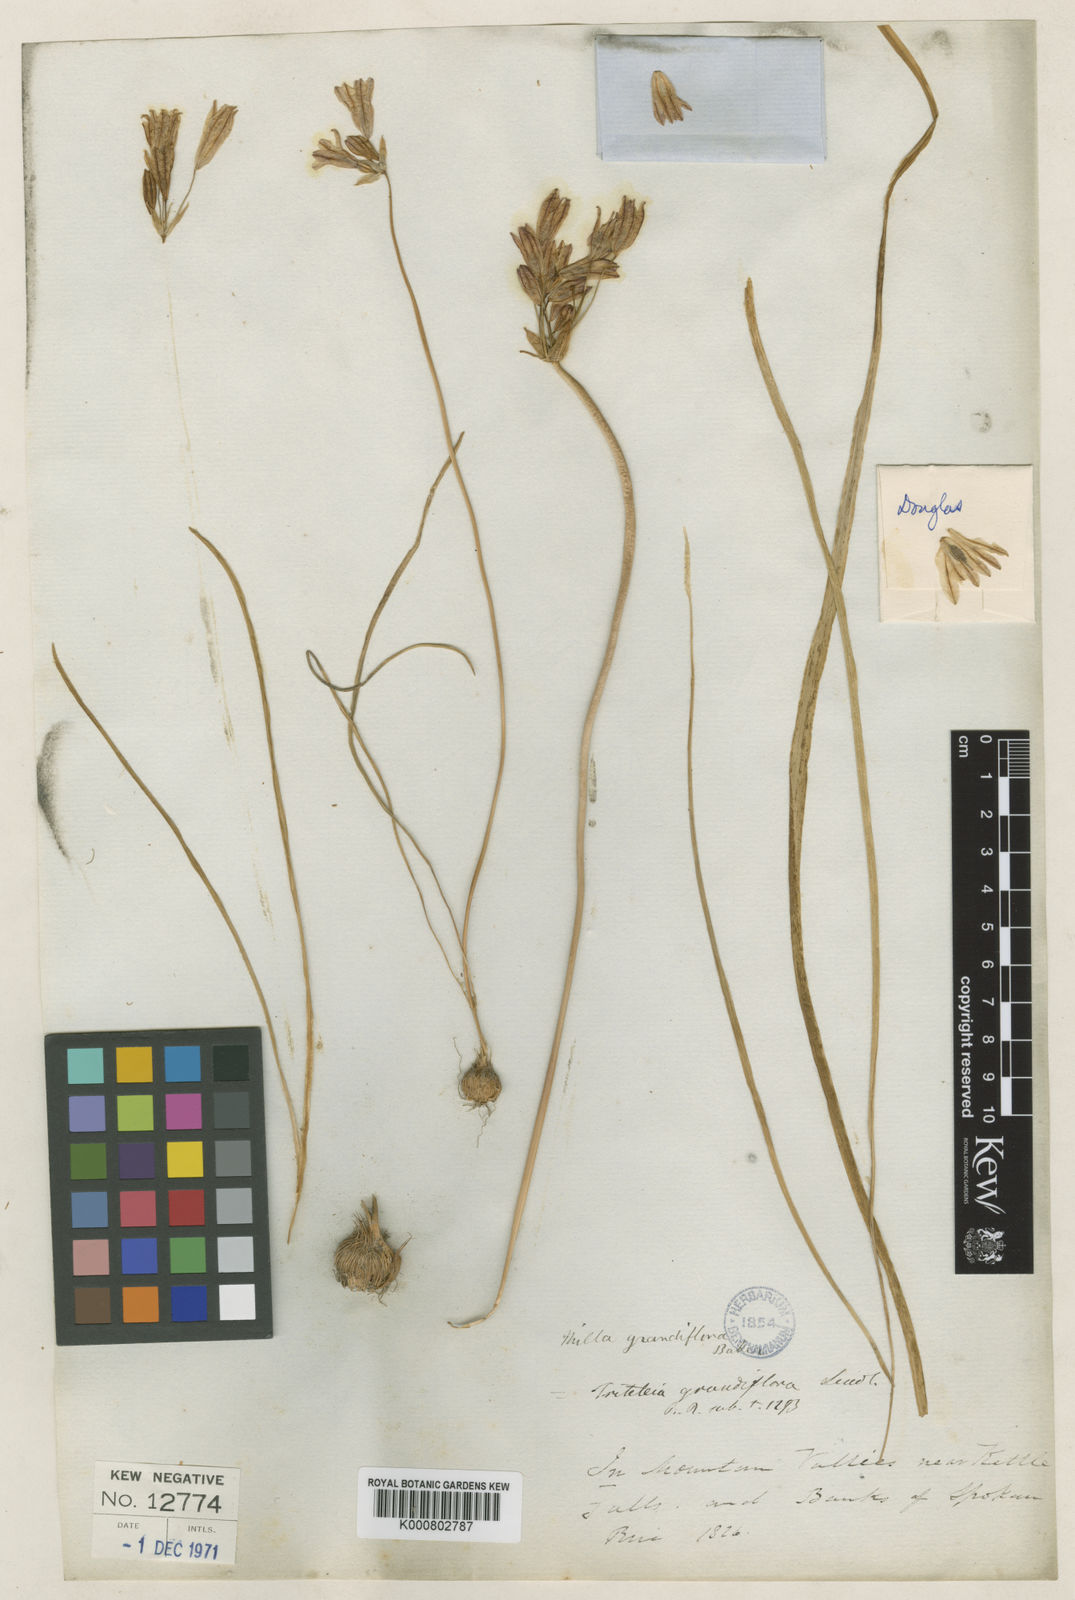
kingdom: Plantae
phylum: Tracheophyta
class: Liliopsida
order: Asparagales
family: Asparagaceae
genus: Triteleia
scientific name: Triteleia grandiflora
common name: Wild hyacinth
